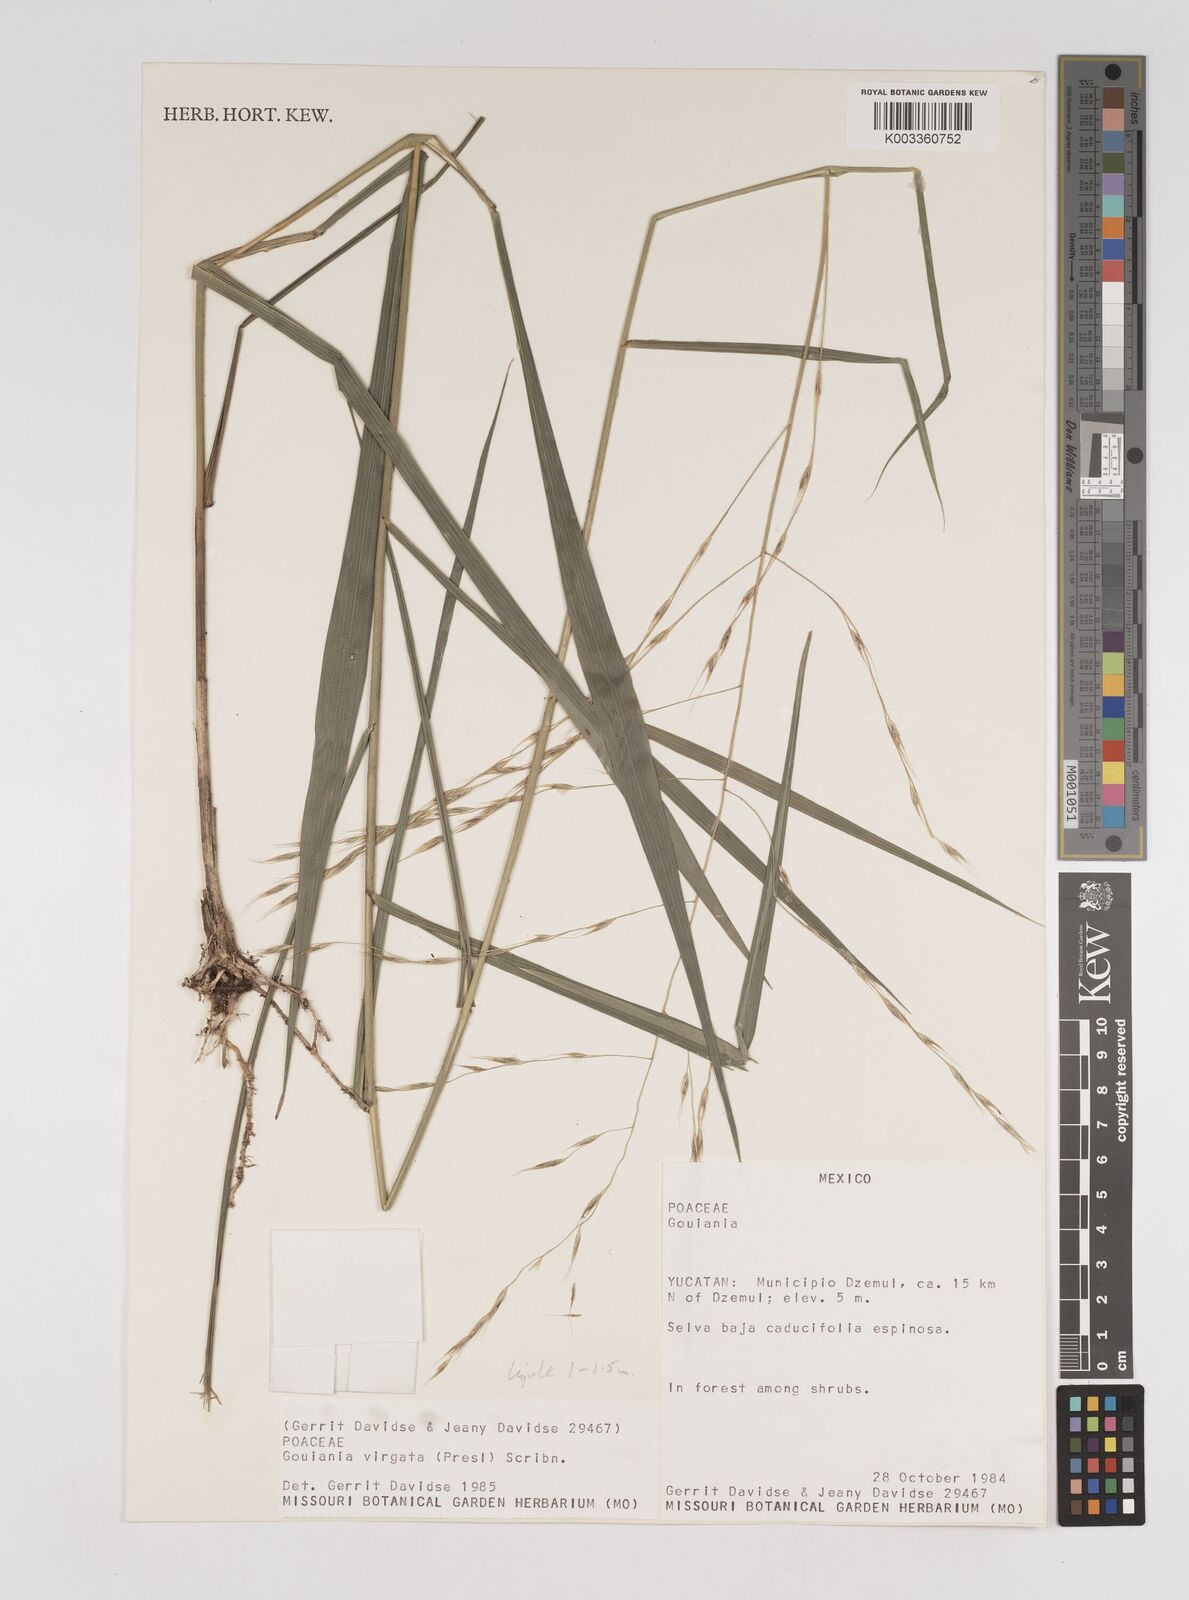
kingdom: Plantae
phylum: Tracheophyta
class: Liliopsida
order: Poales
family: Poaceae
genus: Gouinia
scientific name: Gouinia virgata
